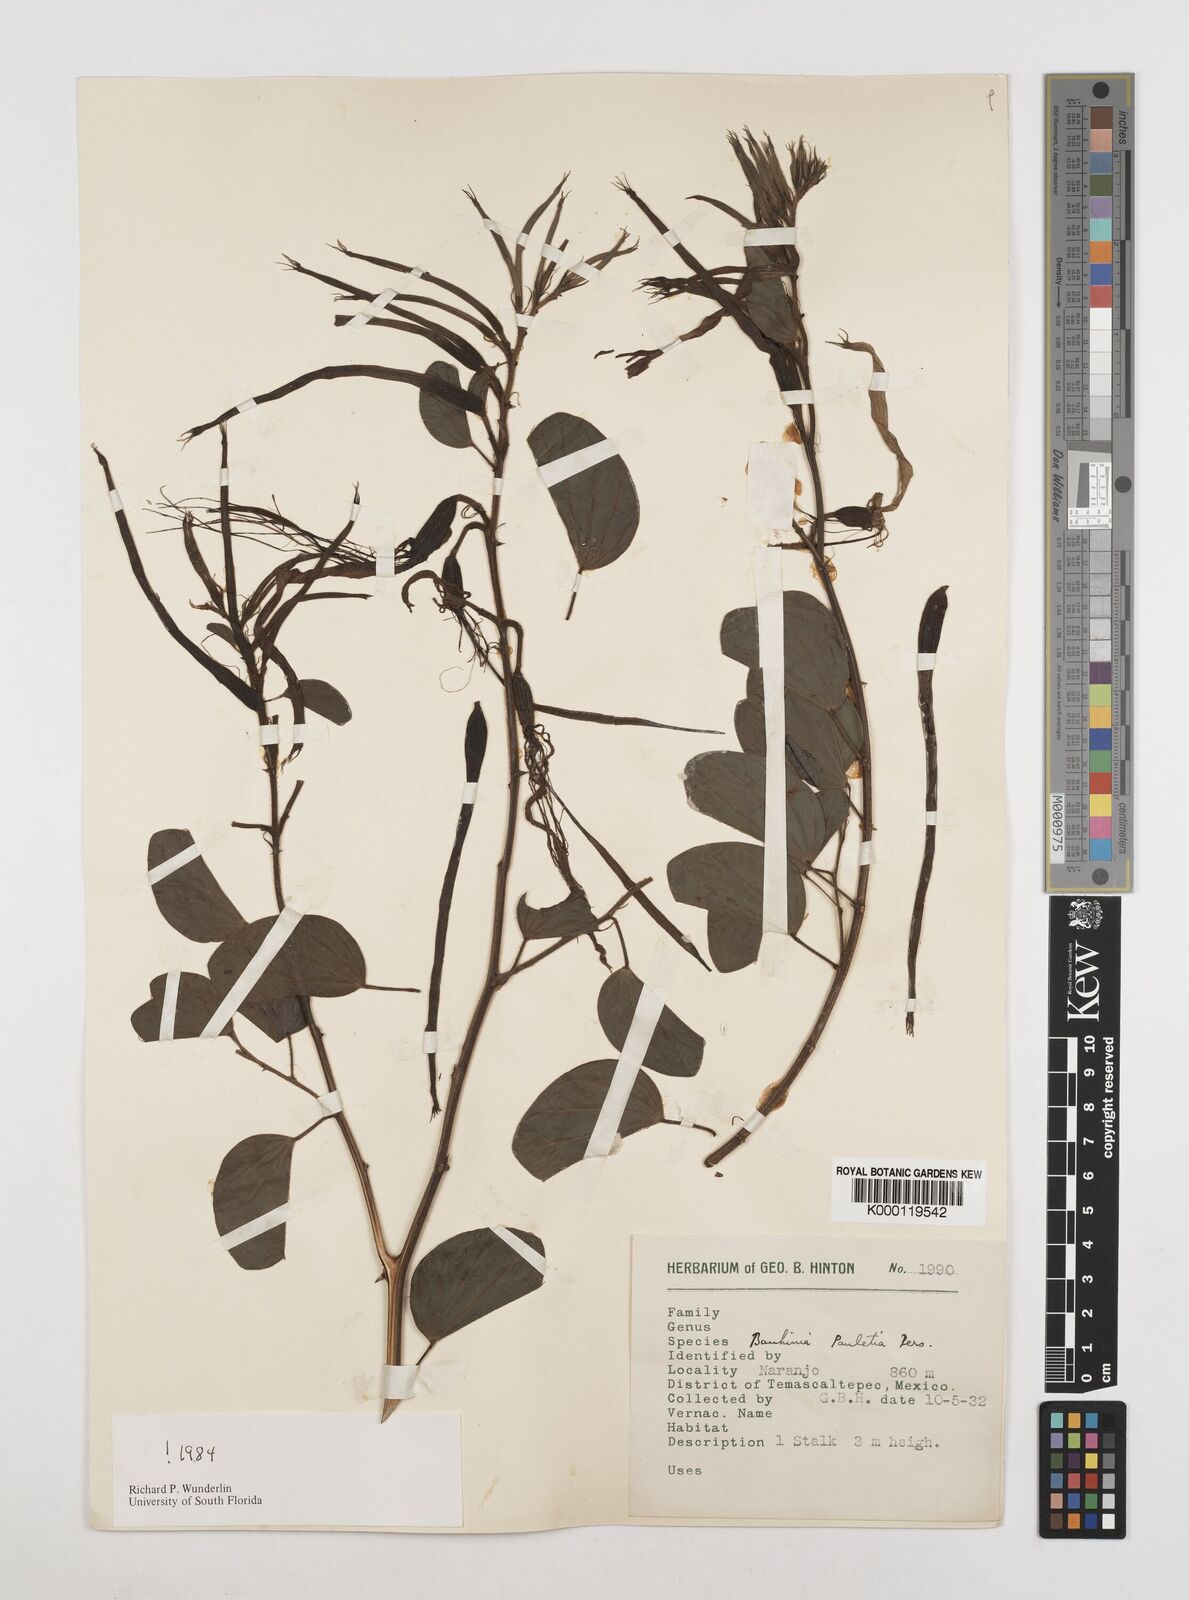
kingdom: Plantae
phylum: Tracheophyta
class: Magnoliopsida
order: Fabales
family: Fabaceae
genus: Bauhinia
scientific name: Bauhinia pauletia
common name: Railway-fence bauhinia
